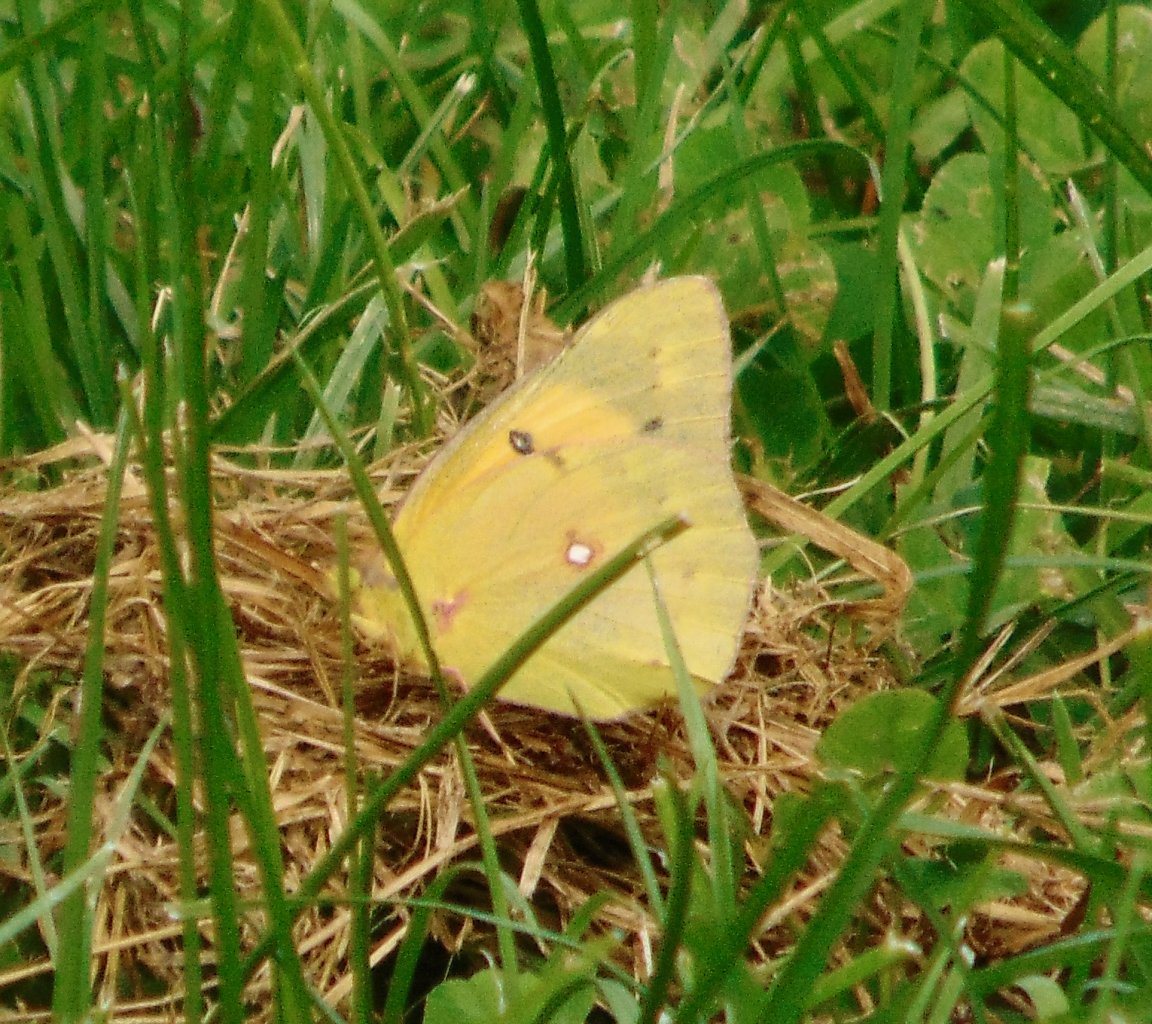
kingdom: Animalia
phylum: Arthropoda
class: Insecta
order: Lepidoptera
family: Pieridae
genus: Colias
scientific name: Colias eurytheme
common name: Orange Sulphur
